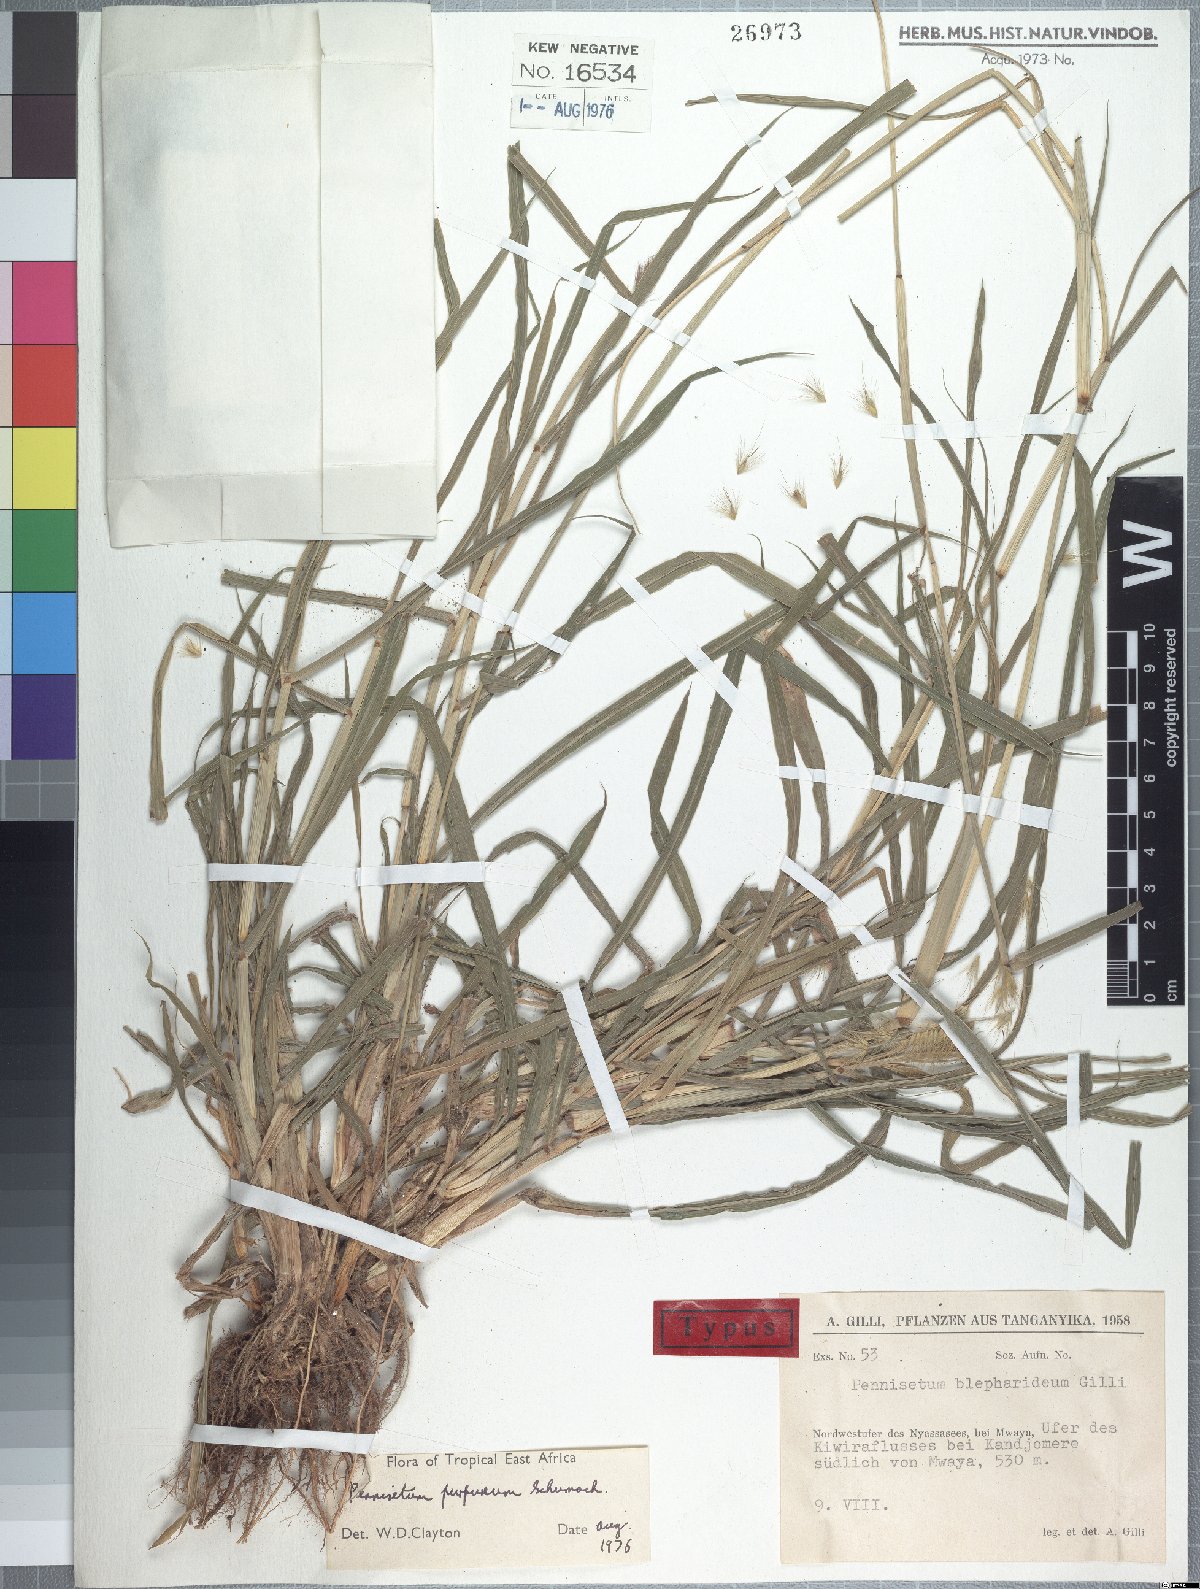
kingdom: Plantae
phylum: Tracheophyta
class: Liliopsida
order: Poales
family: Poaceae
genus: Cenchrus
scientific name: Cenchrus purpureus
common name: Elephant grass
